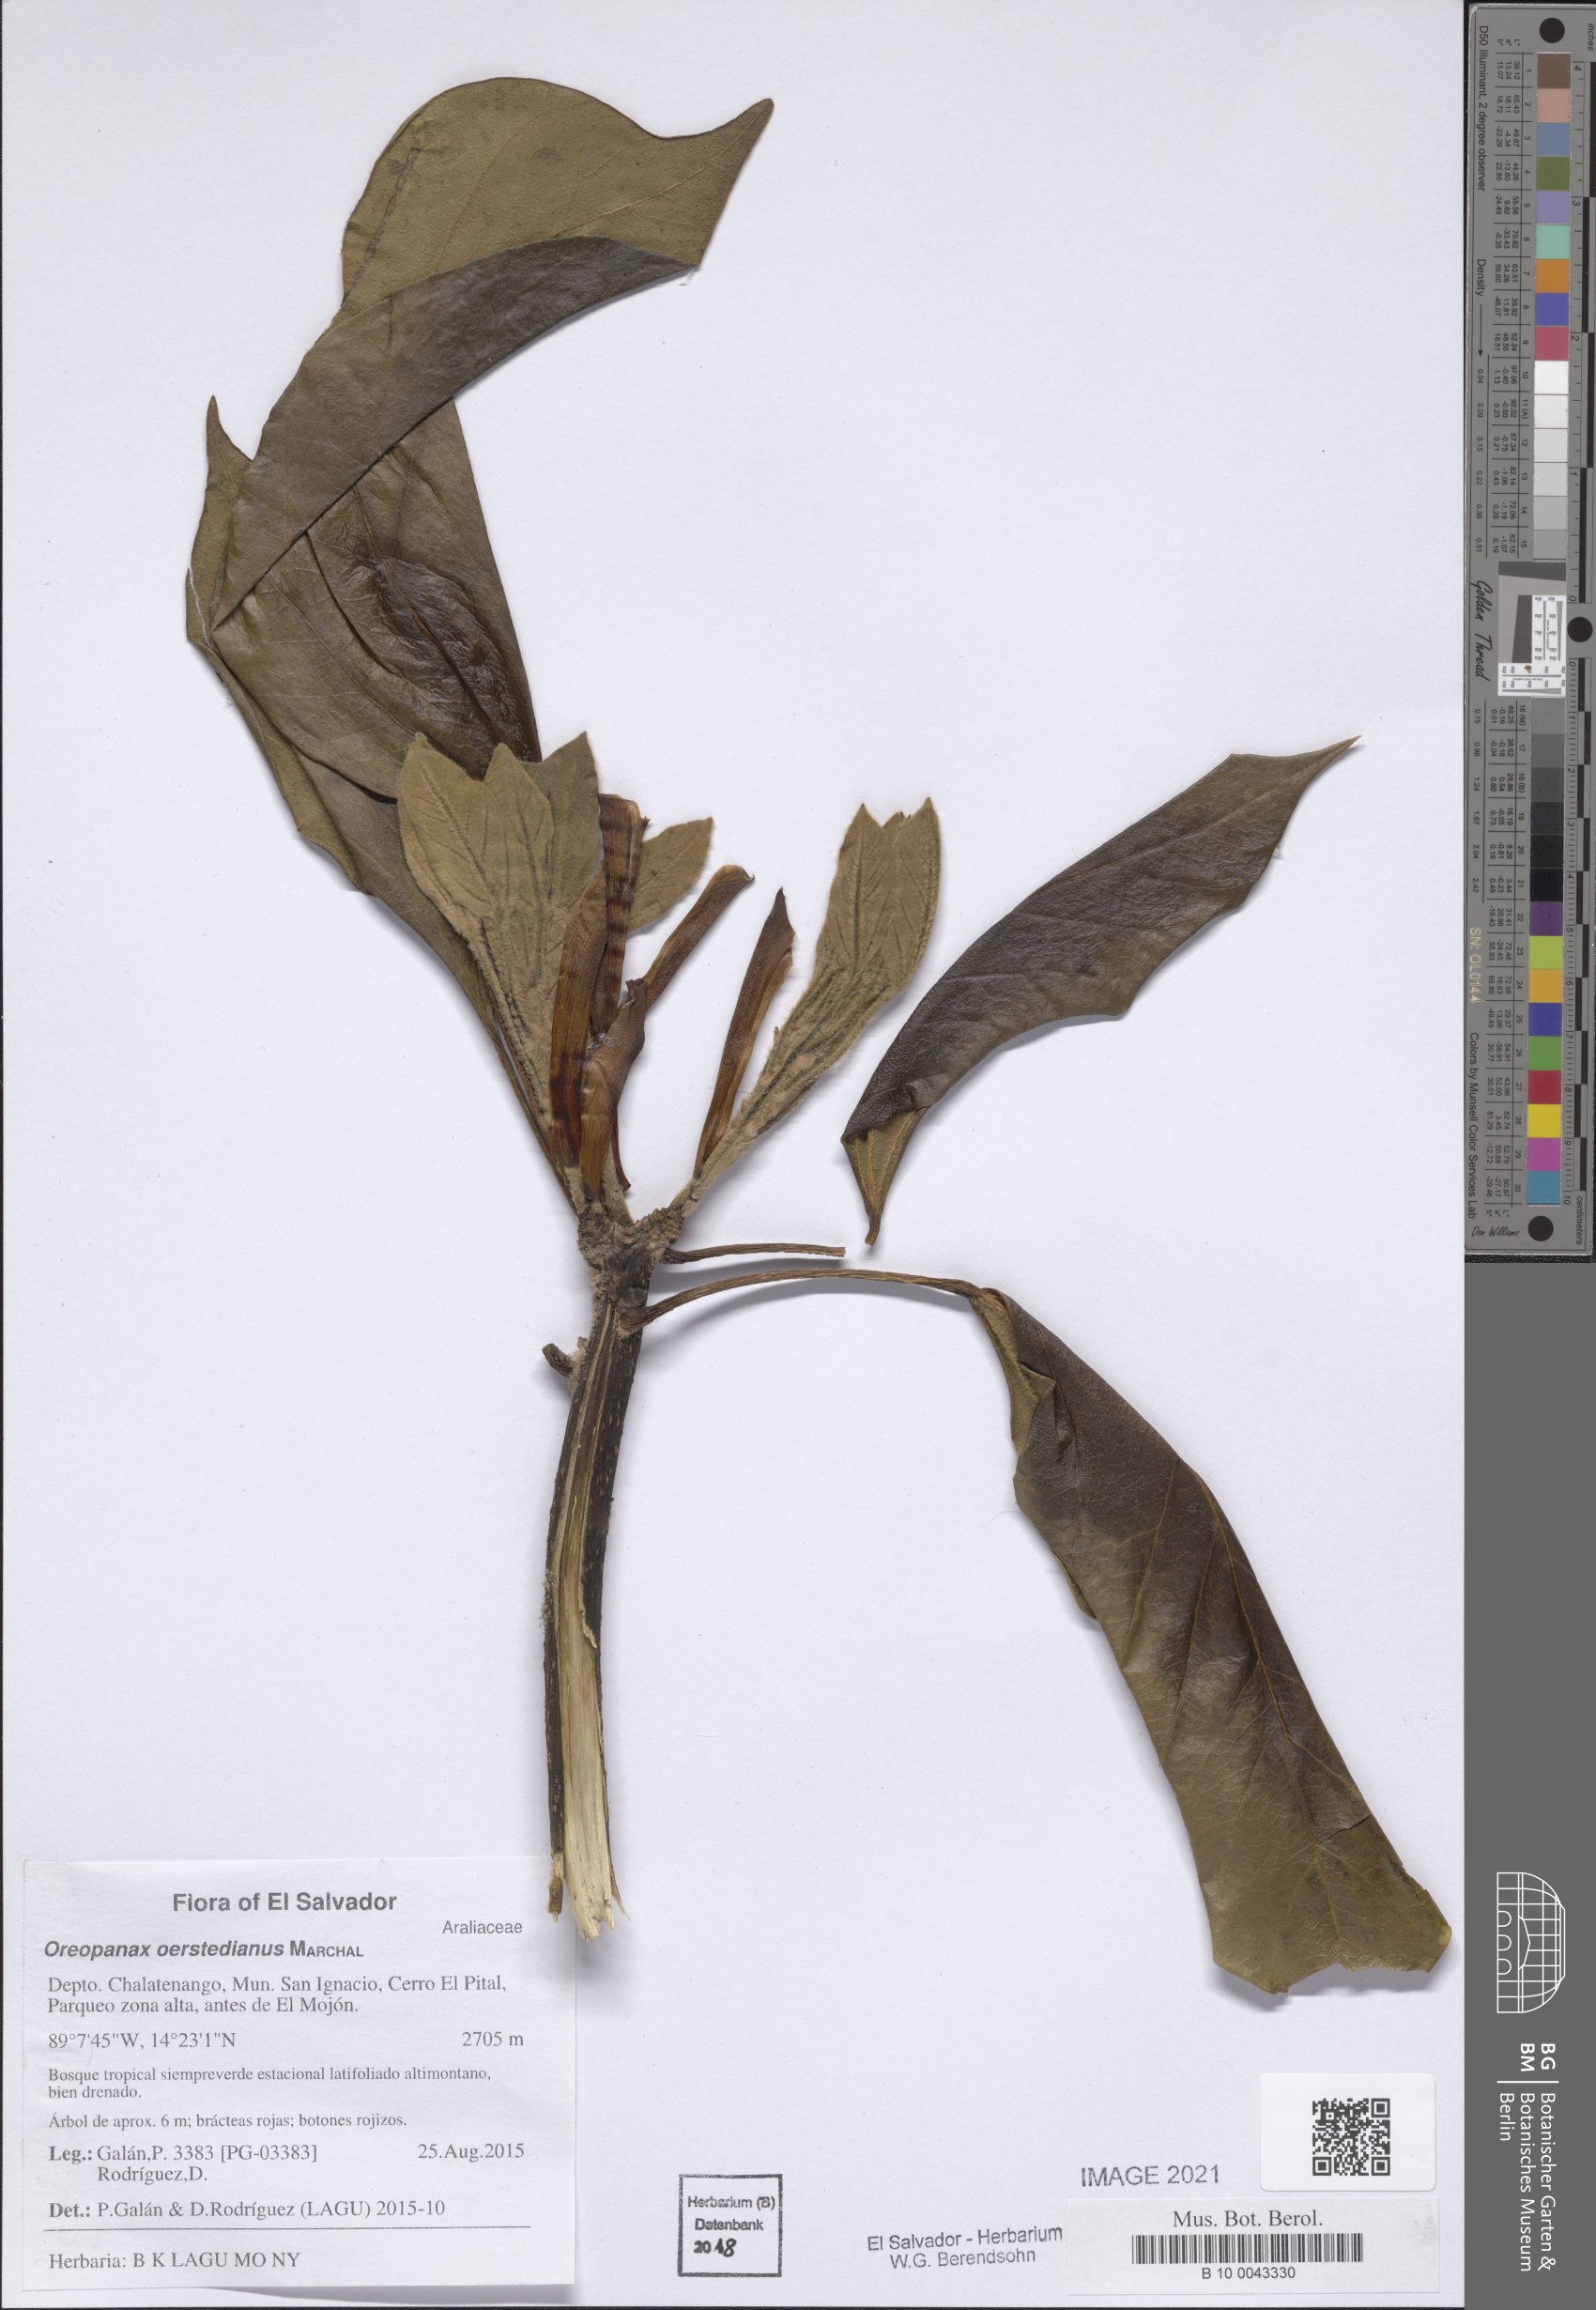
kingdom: Plantae
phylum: Tracheophyta
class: Magnoliopsida
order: Apiales
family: Araliaceae
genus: Oreopanax
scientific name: Oreopanax oerstedianus
